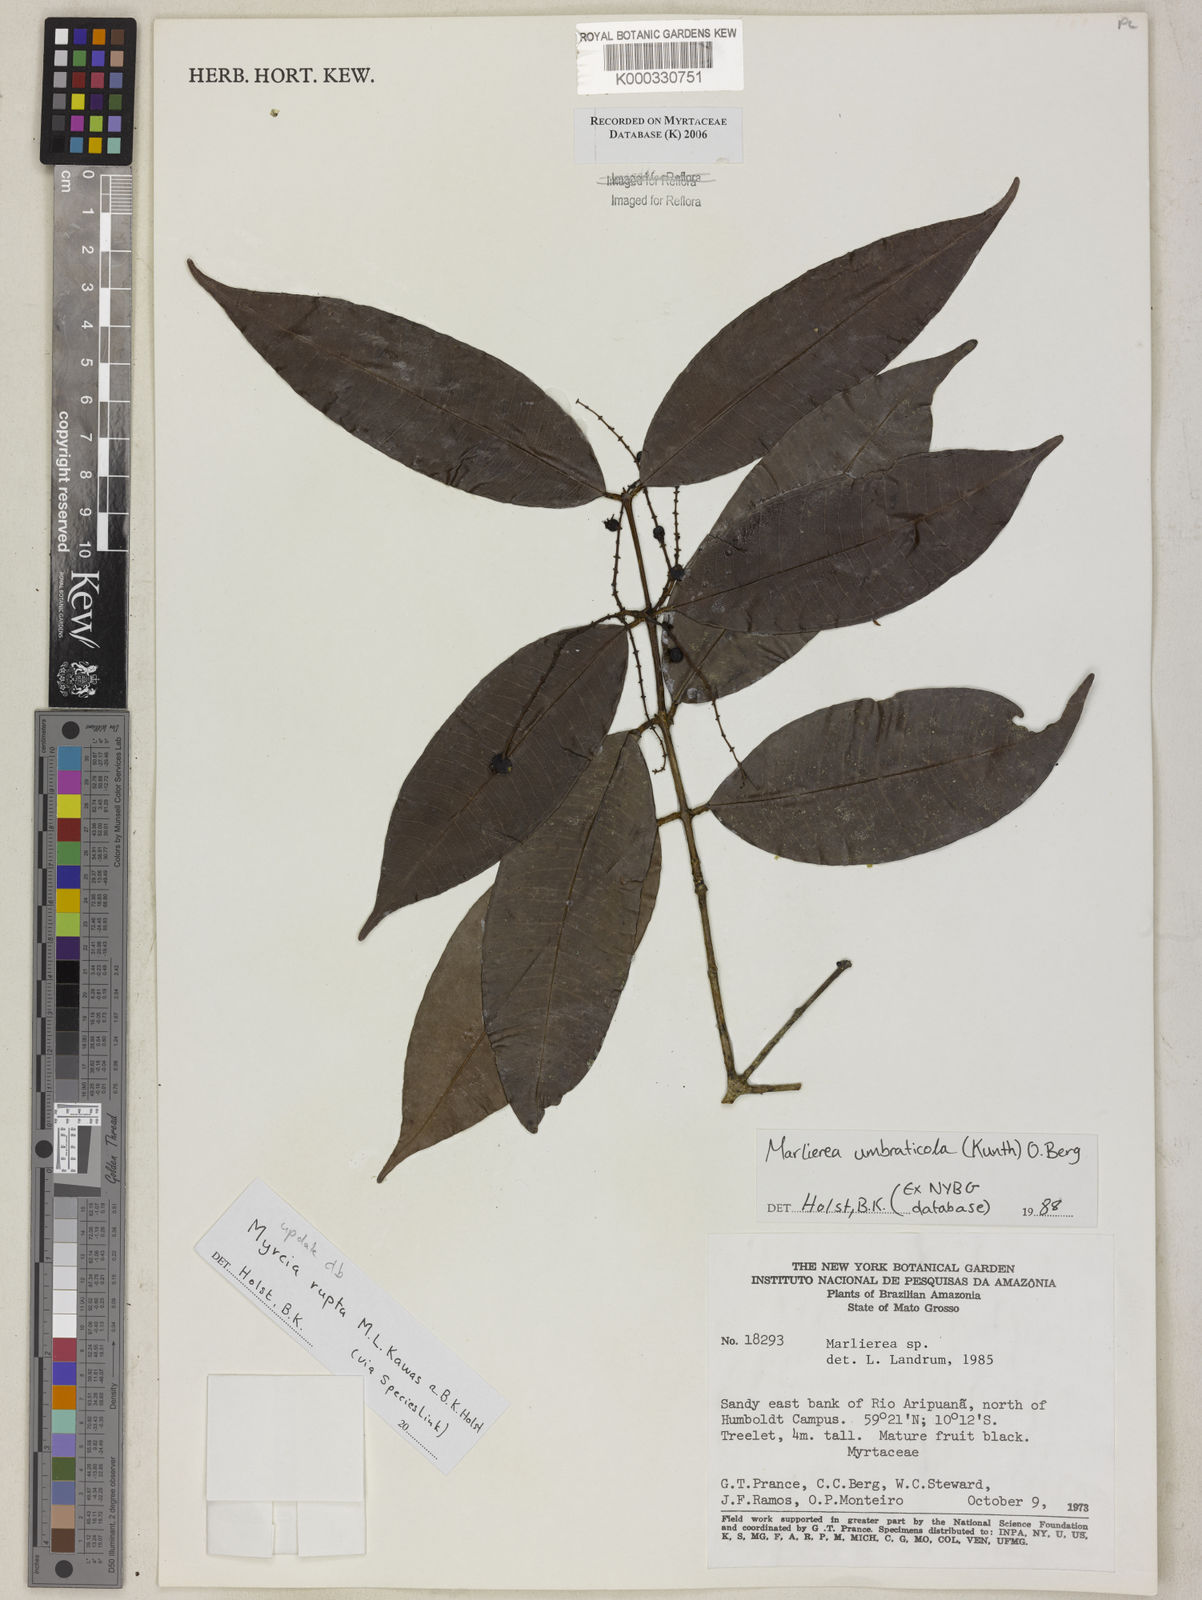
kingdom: Plantae
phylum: Tracheophyta
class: Magnoliopsida
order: Myrtales
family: Myrtaceae
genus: Marlierea
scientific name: Marlierea
